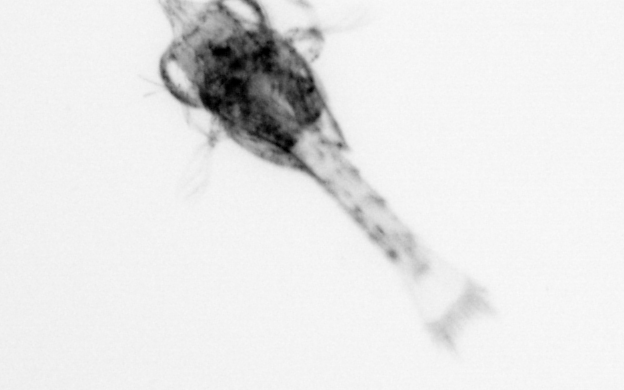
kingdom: Animalia
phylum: Arthropoda
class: Malacostraca
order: Decapoda
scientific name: Decapoda
